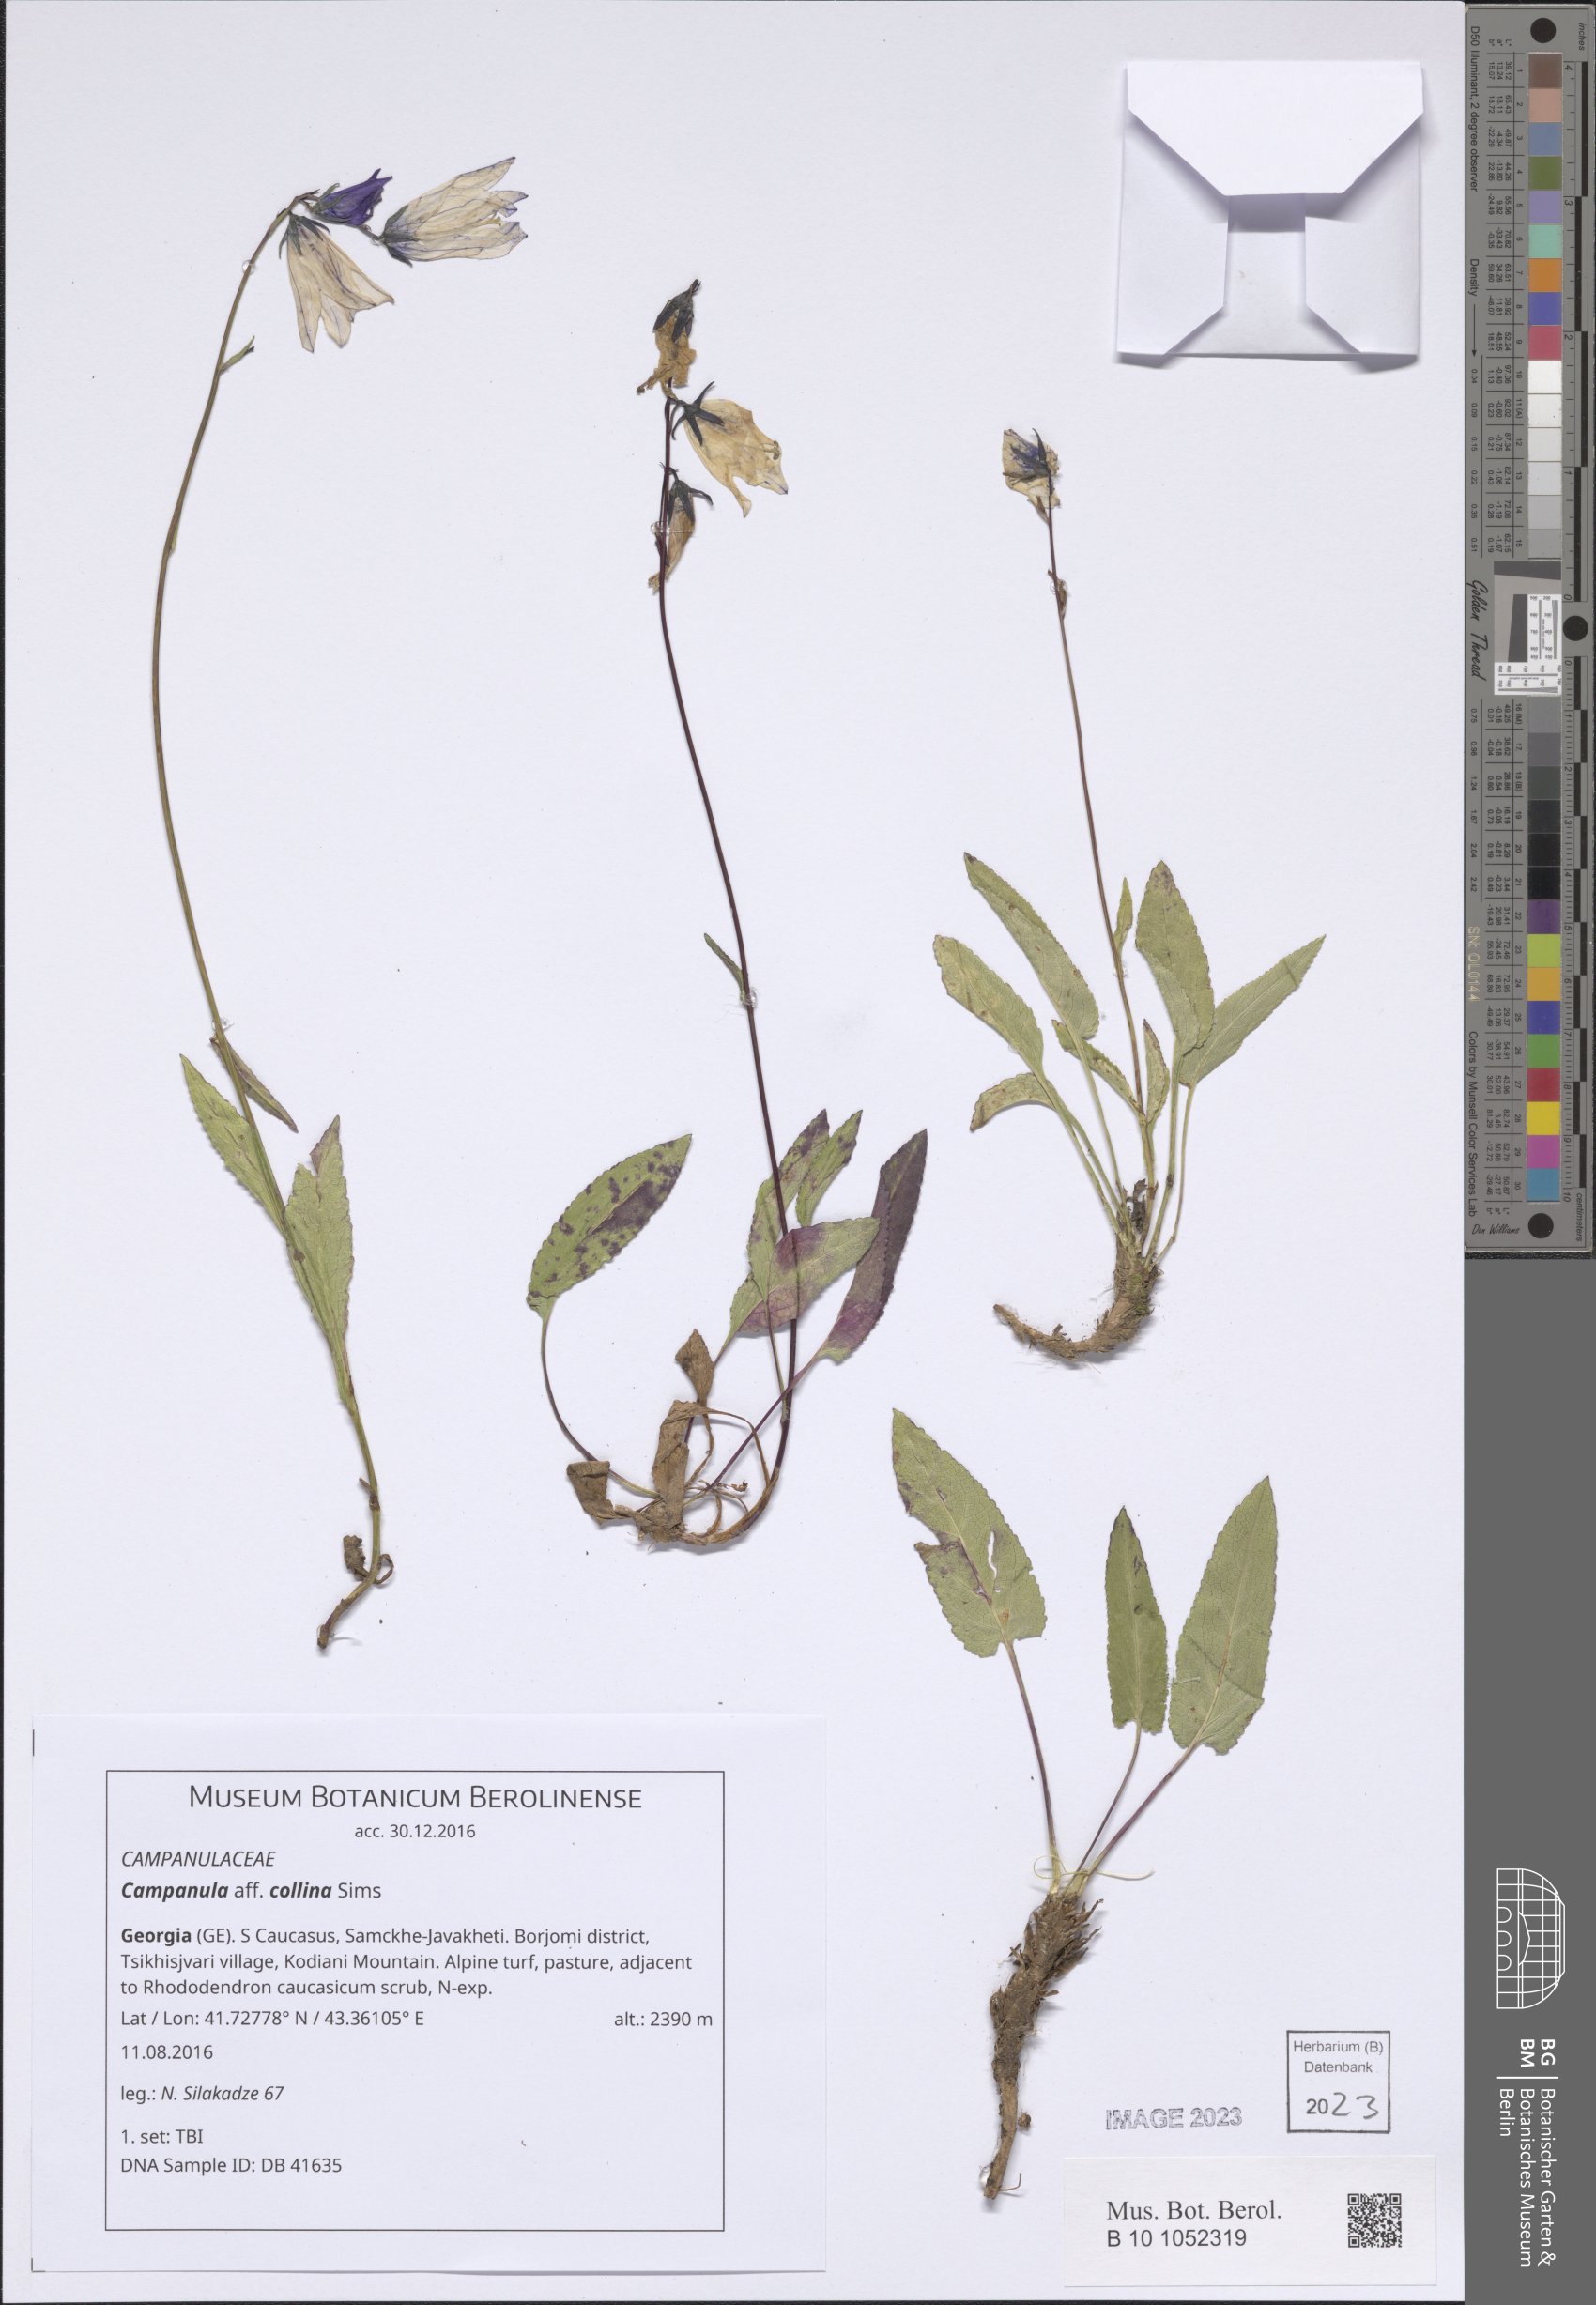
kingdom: Plantae
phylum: Tracheophyta
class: Magnoliopsida
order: Asterales
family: Campanulaceae
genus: Campanula
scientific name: Campanula collina
